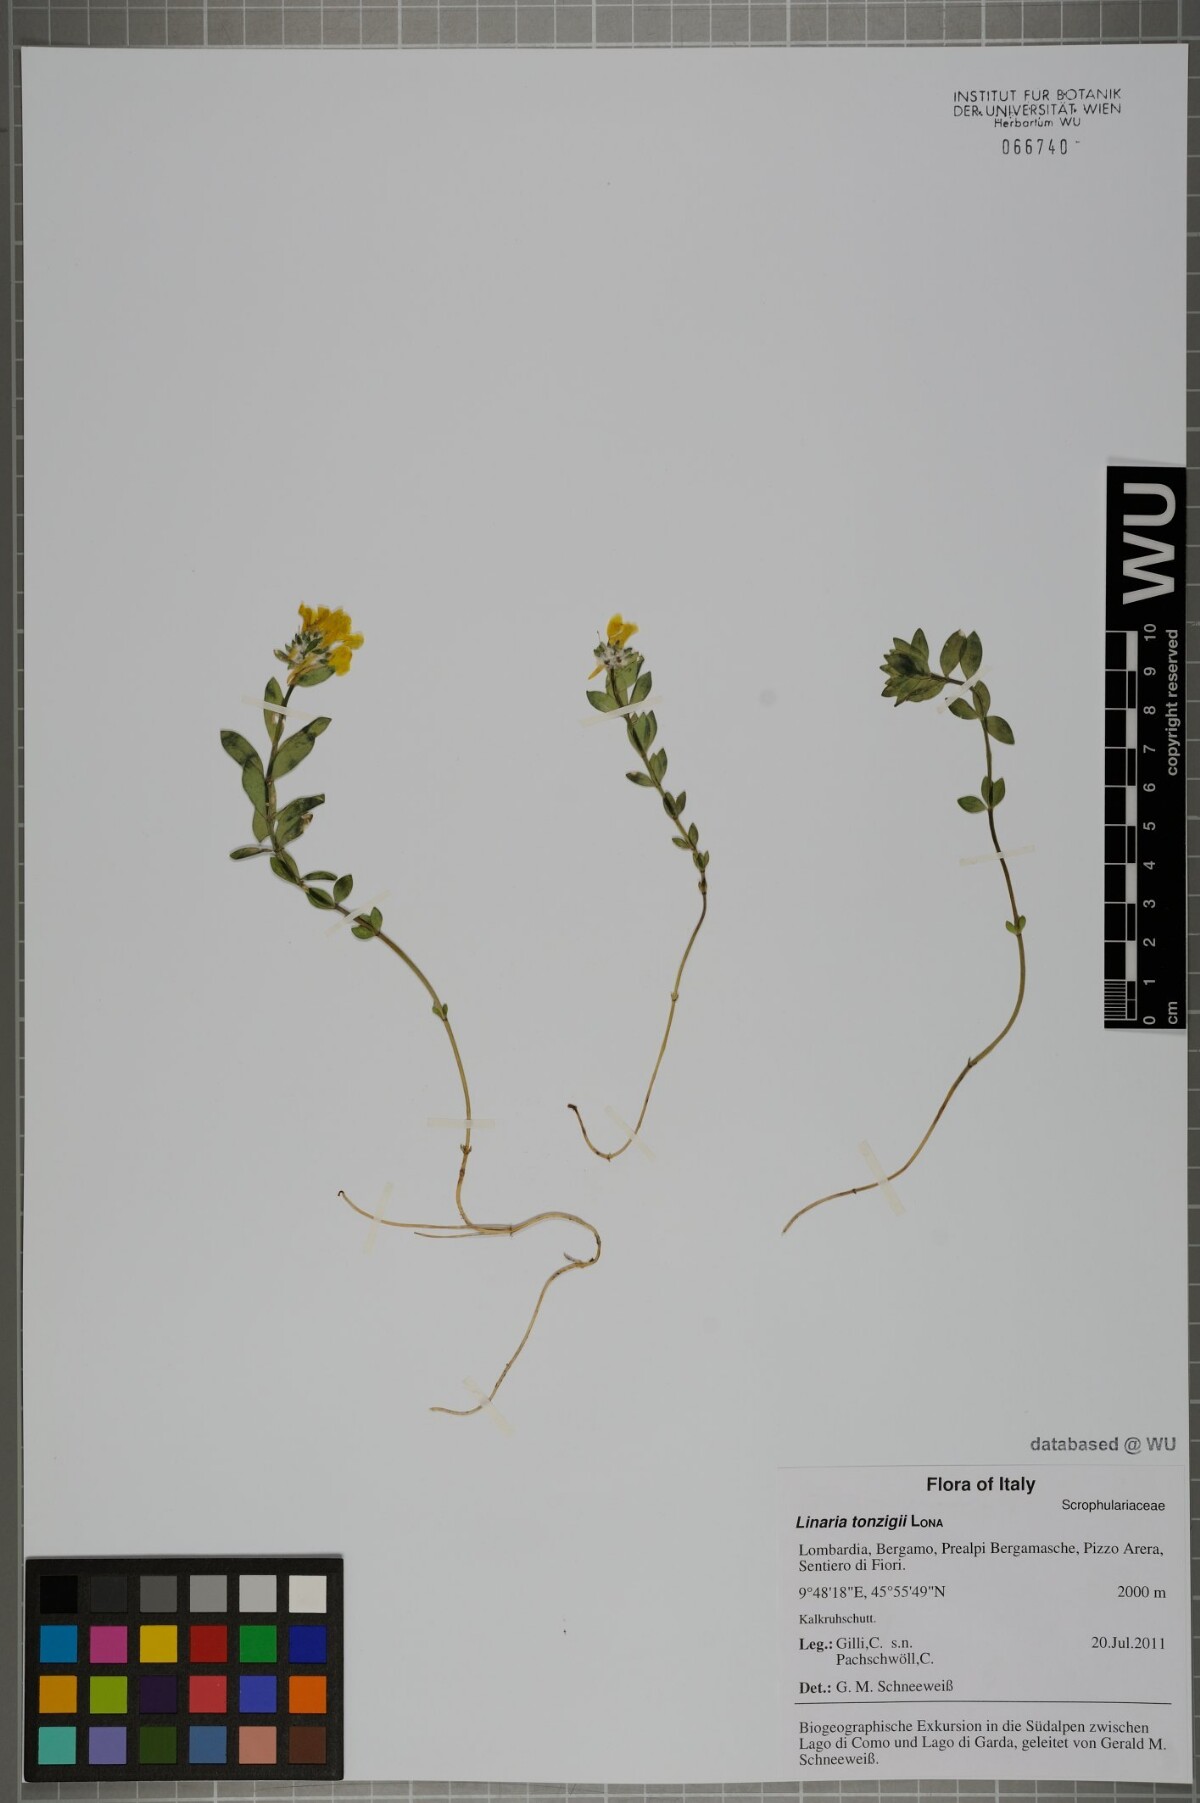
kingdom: Plantae
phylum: Tracheophyta
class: Magnoliopsida
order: Lamiales
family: Plantaginaceae
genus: Linaria
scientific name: Linaria tonzigii
